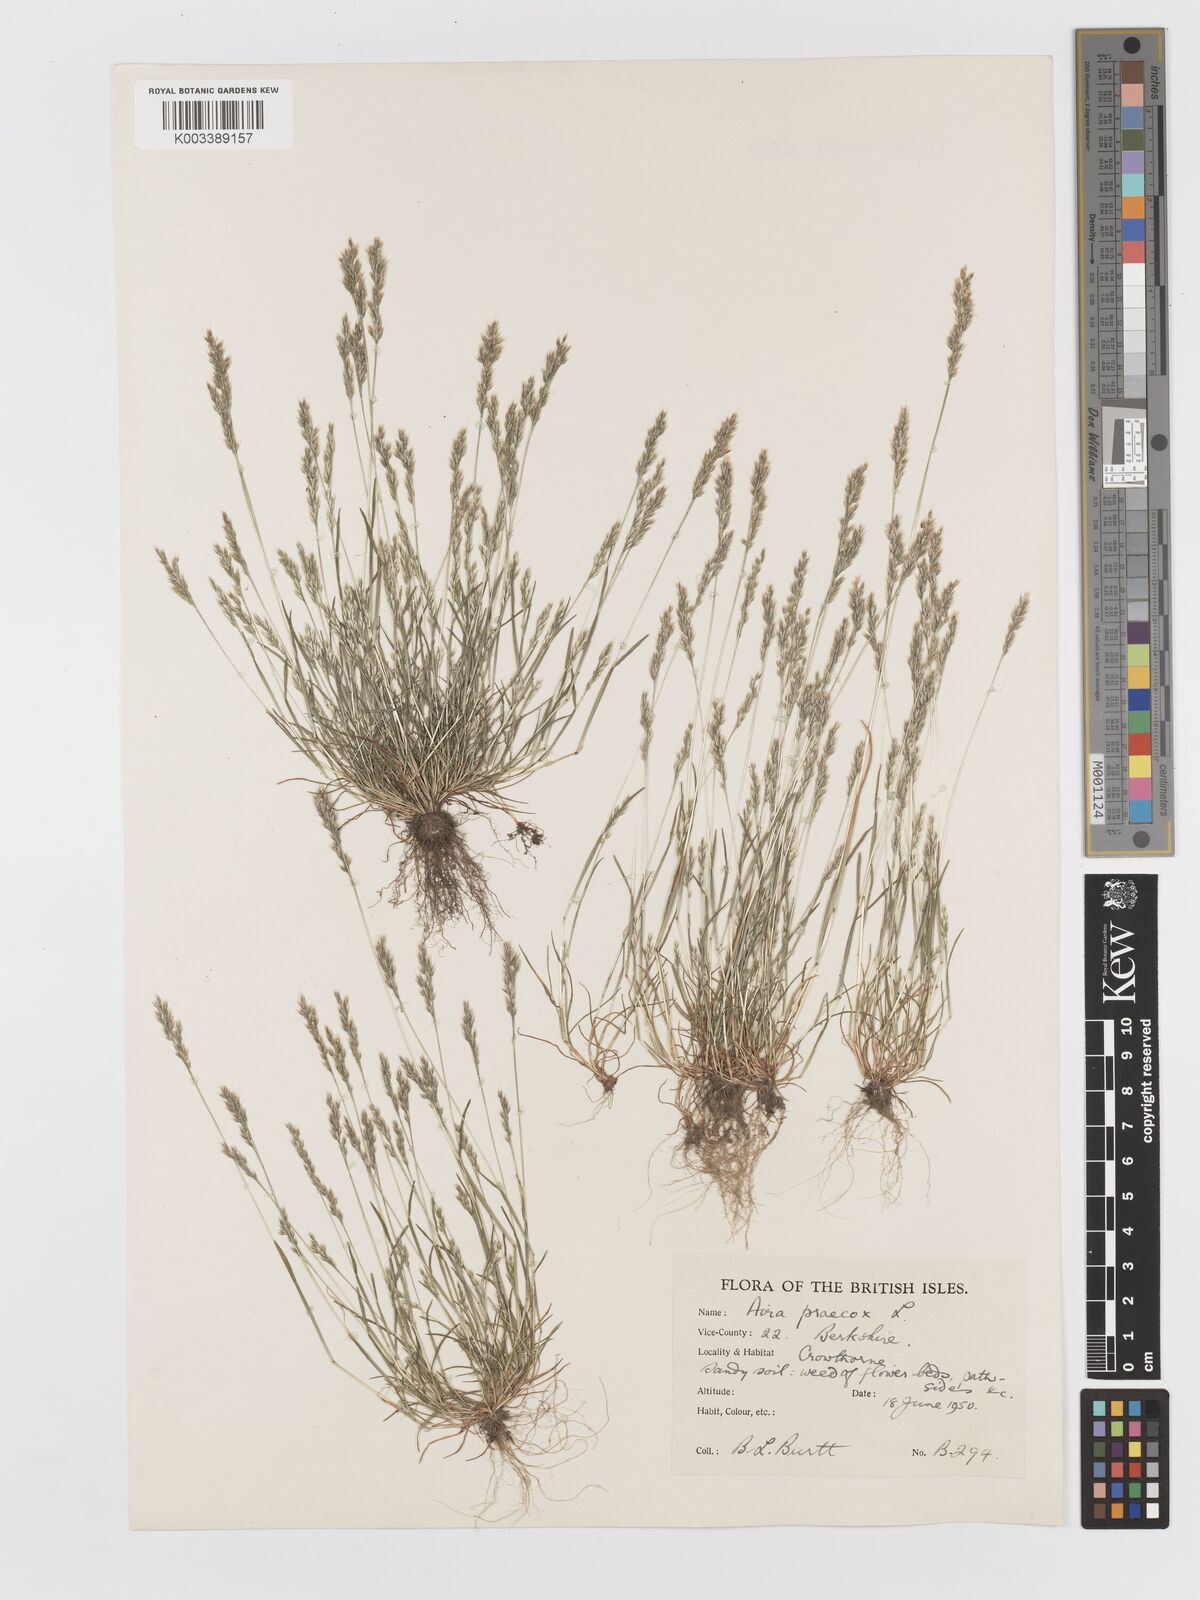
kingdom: Plantae
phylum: Tracheophyta
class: Liliopsida
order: Poales
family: Poaceae
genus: Aira
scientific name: Aira praecox
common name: Early hair-grass
